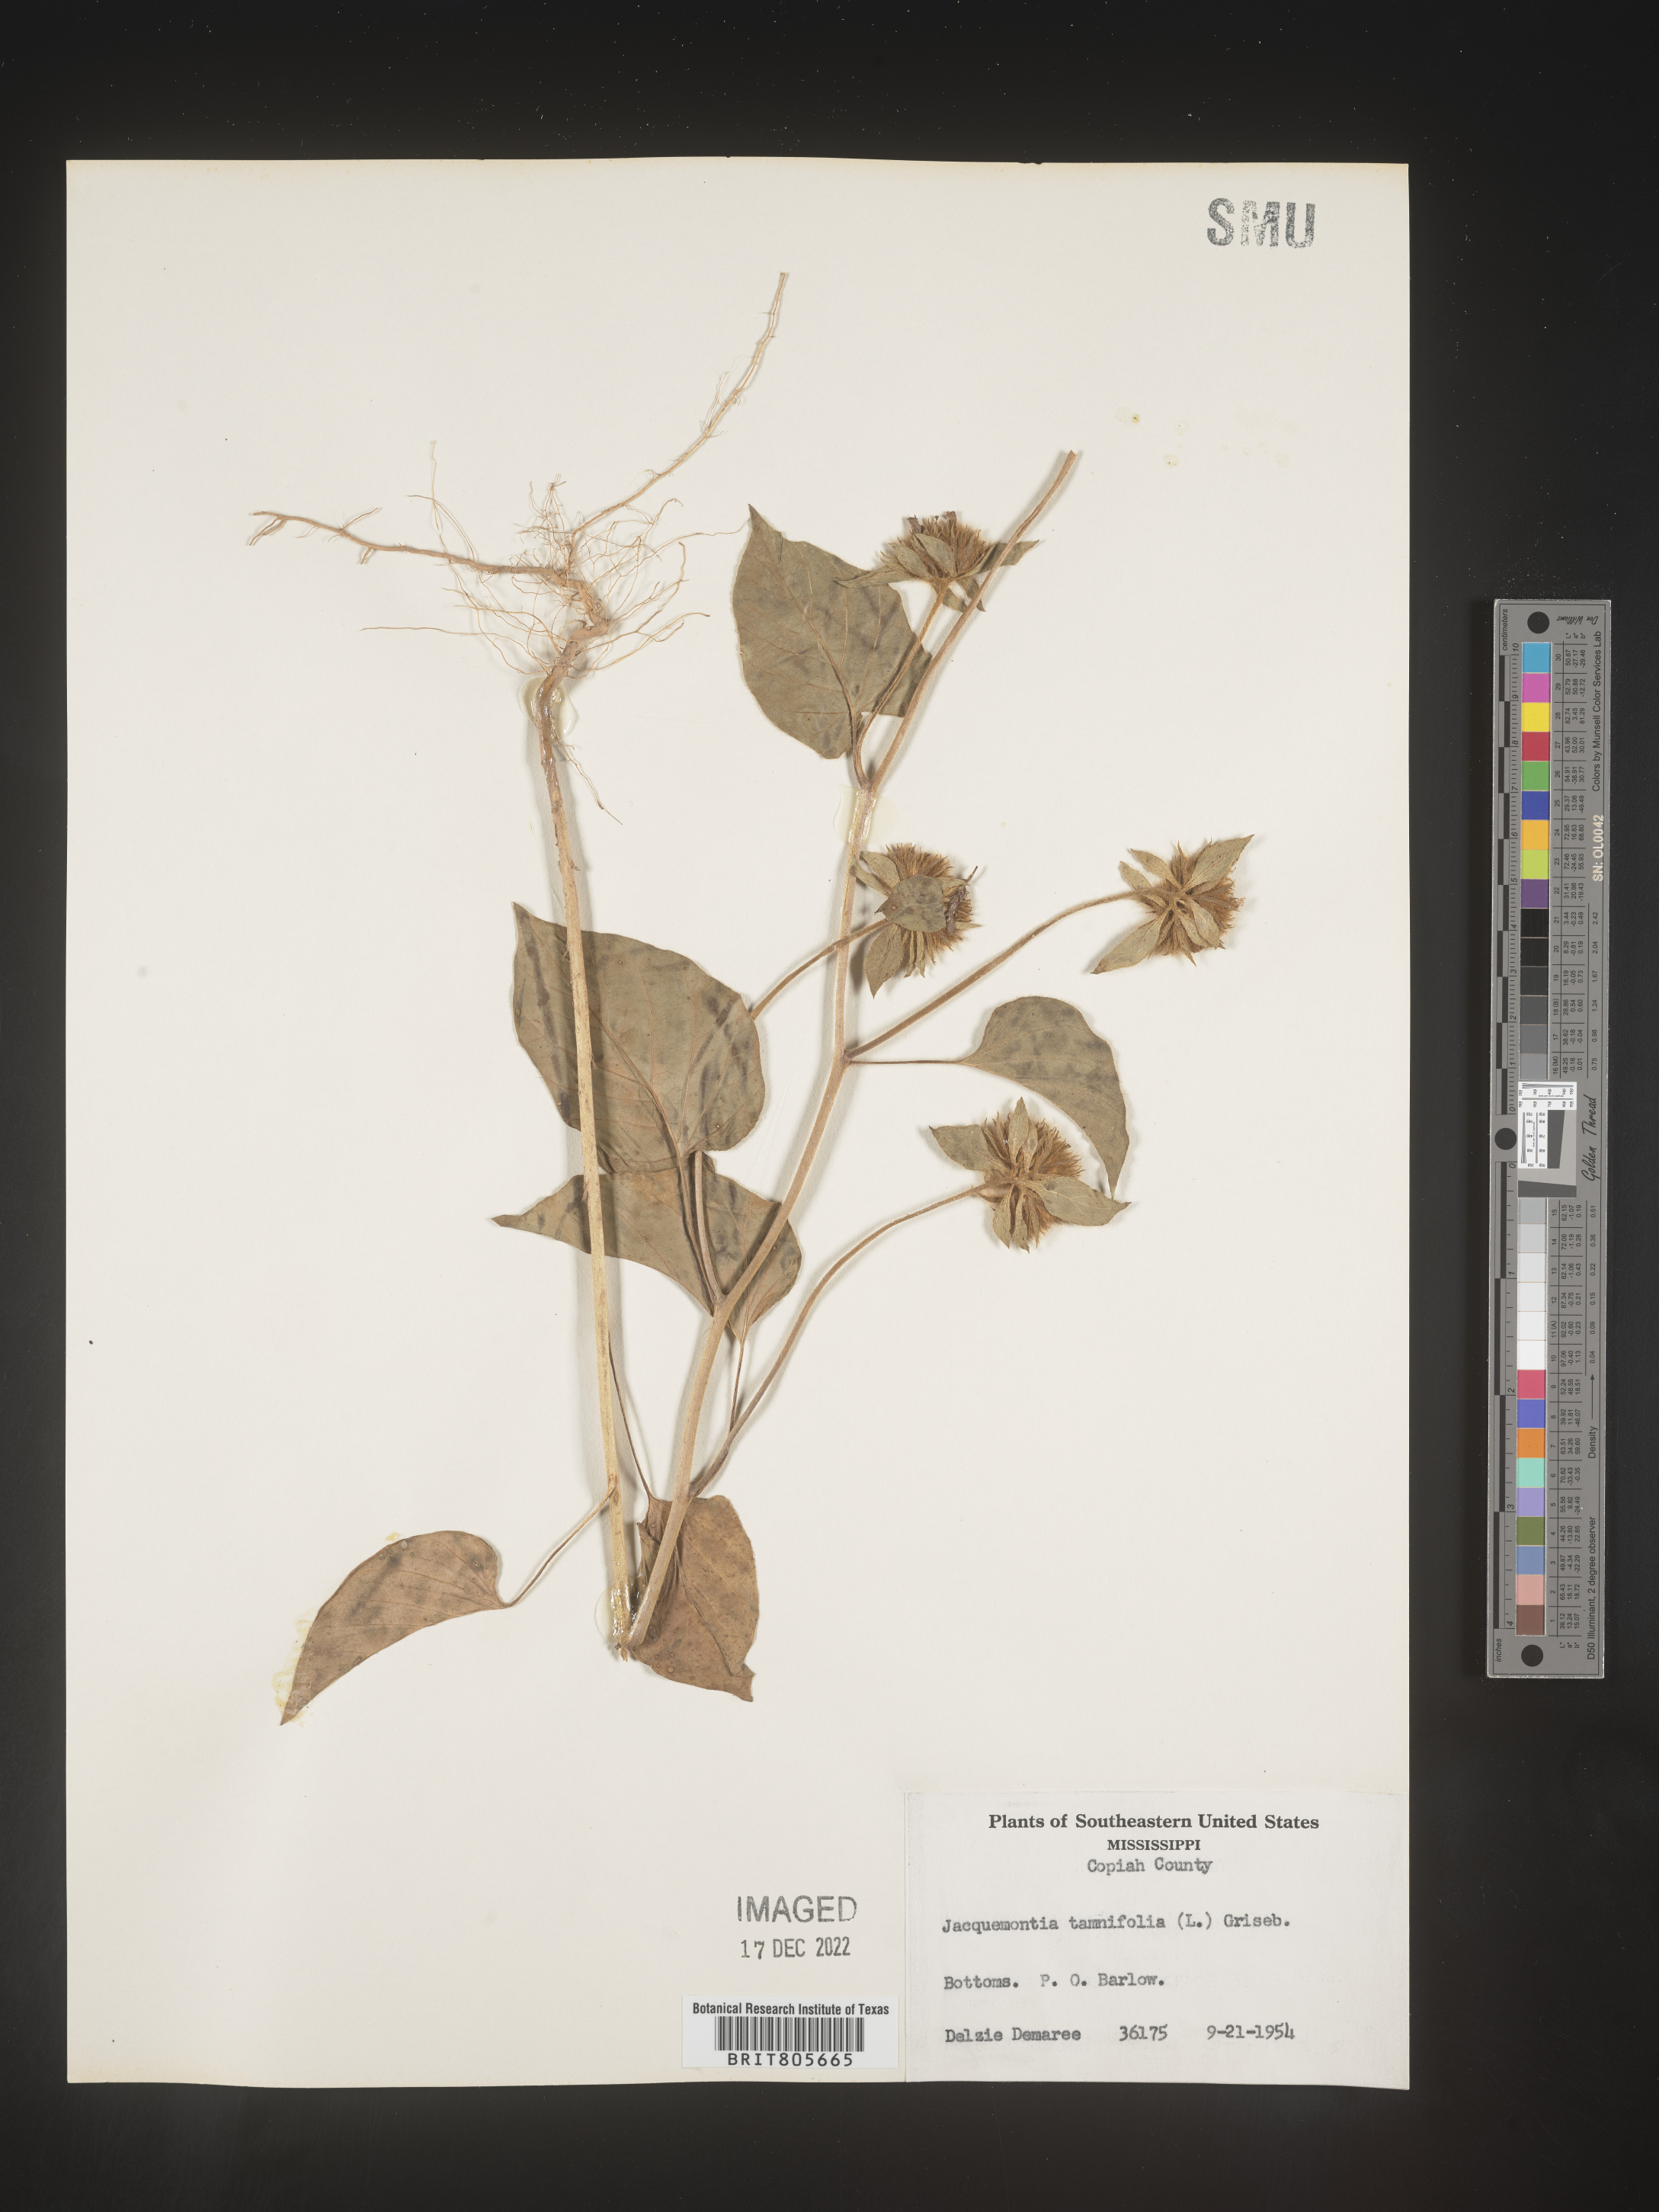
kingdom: Plantae
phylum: Tracheophyta
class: Magnoliopsida
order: Solanales
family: Convolvulaceae
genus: Jacquemontia
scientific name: Jacquemontia tamnifolia
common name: Hairy clustervine
